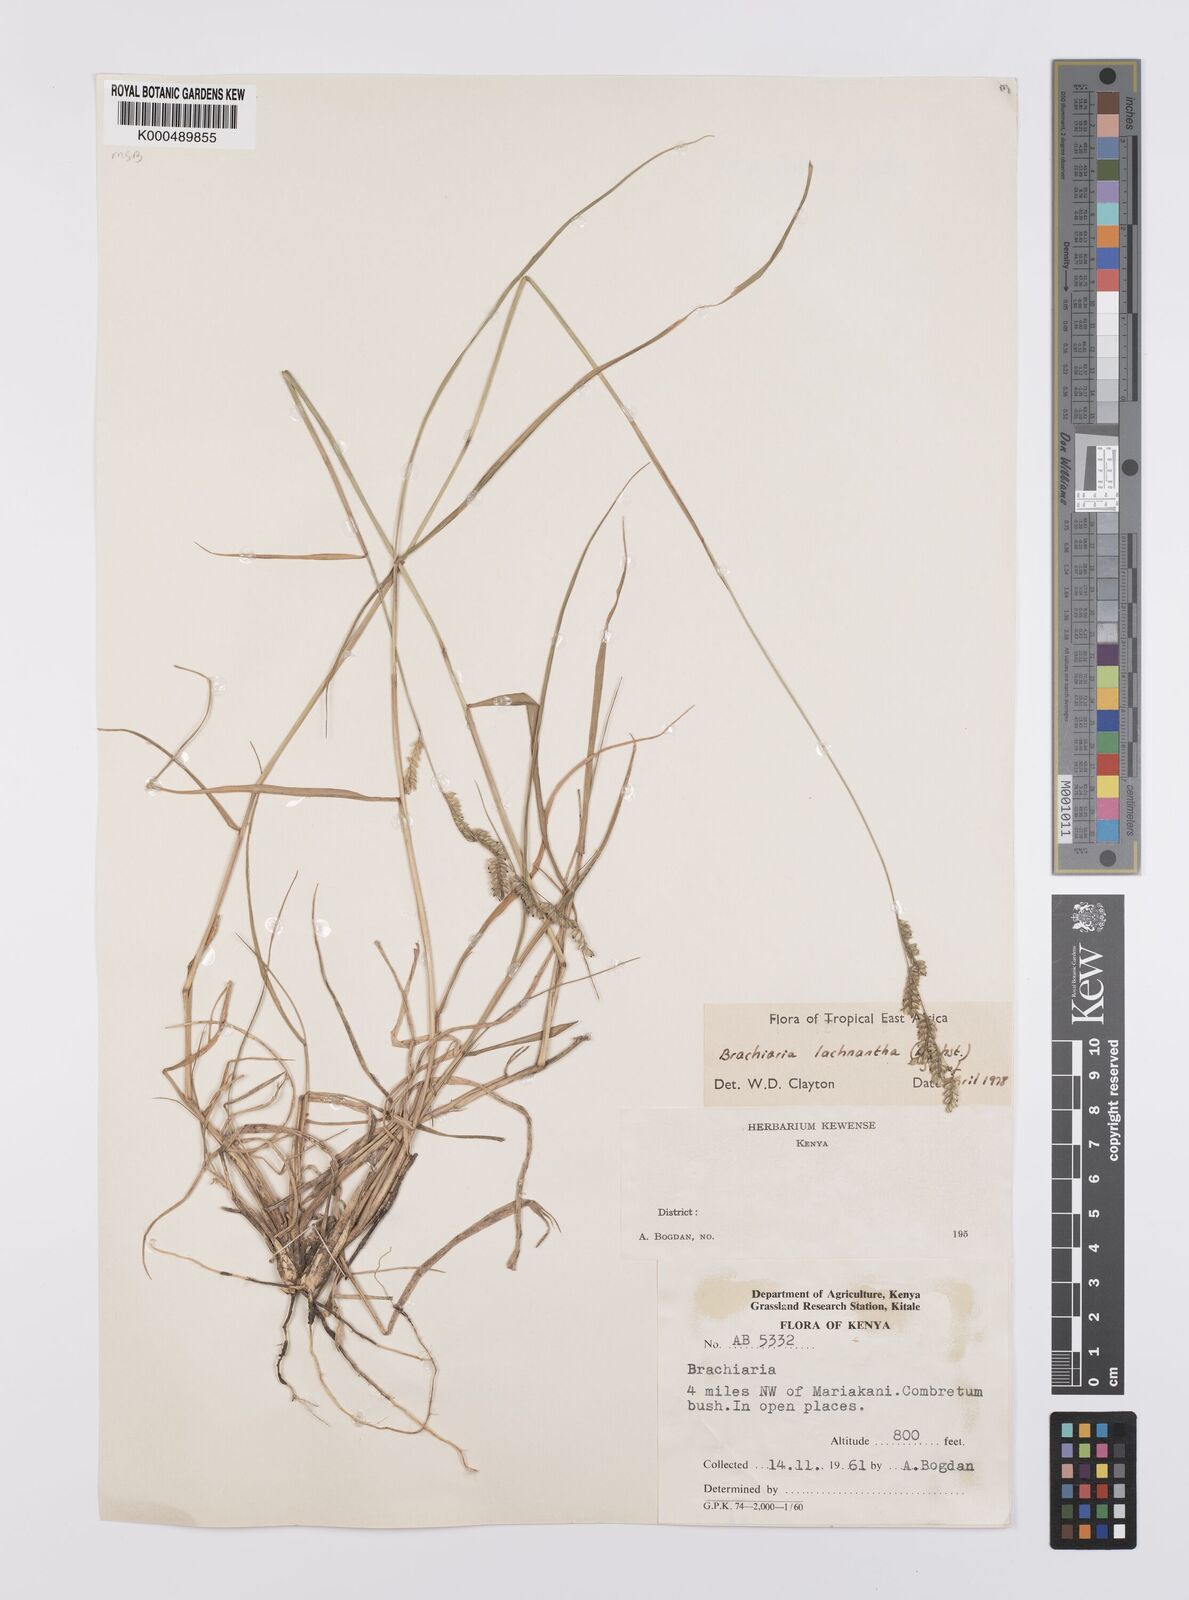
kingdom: Plantae
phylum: Tracheophyta
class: Liliopsida
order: Poales
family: Poaceae
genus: Urochloa
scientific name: Urochloa lachnantha
